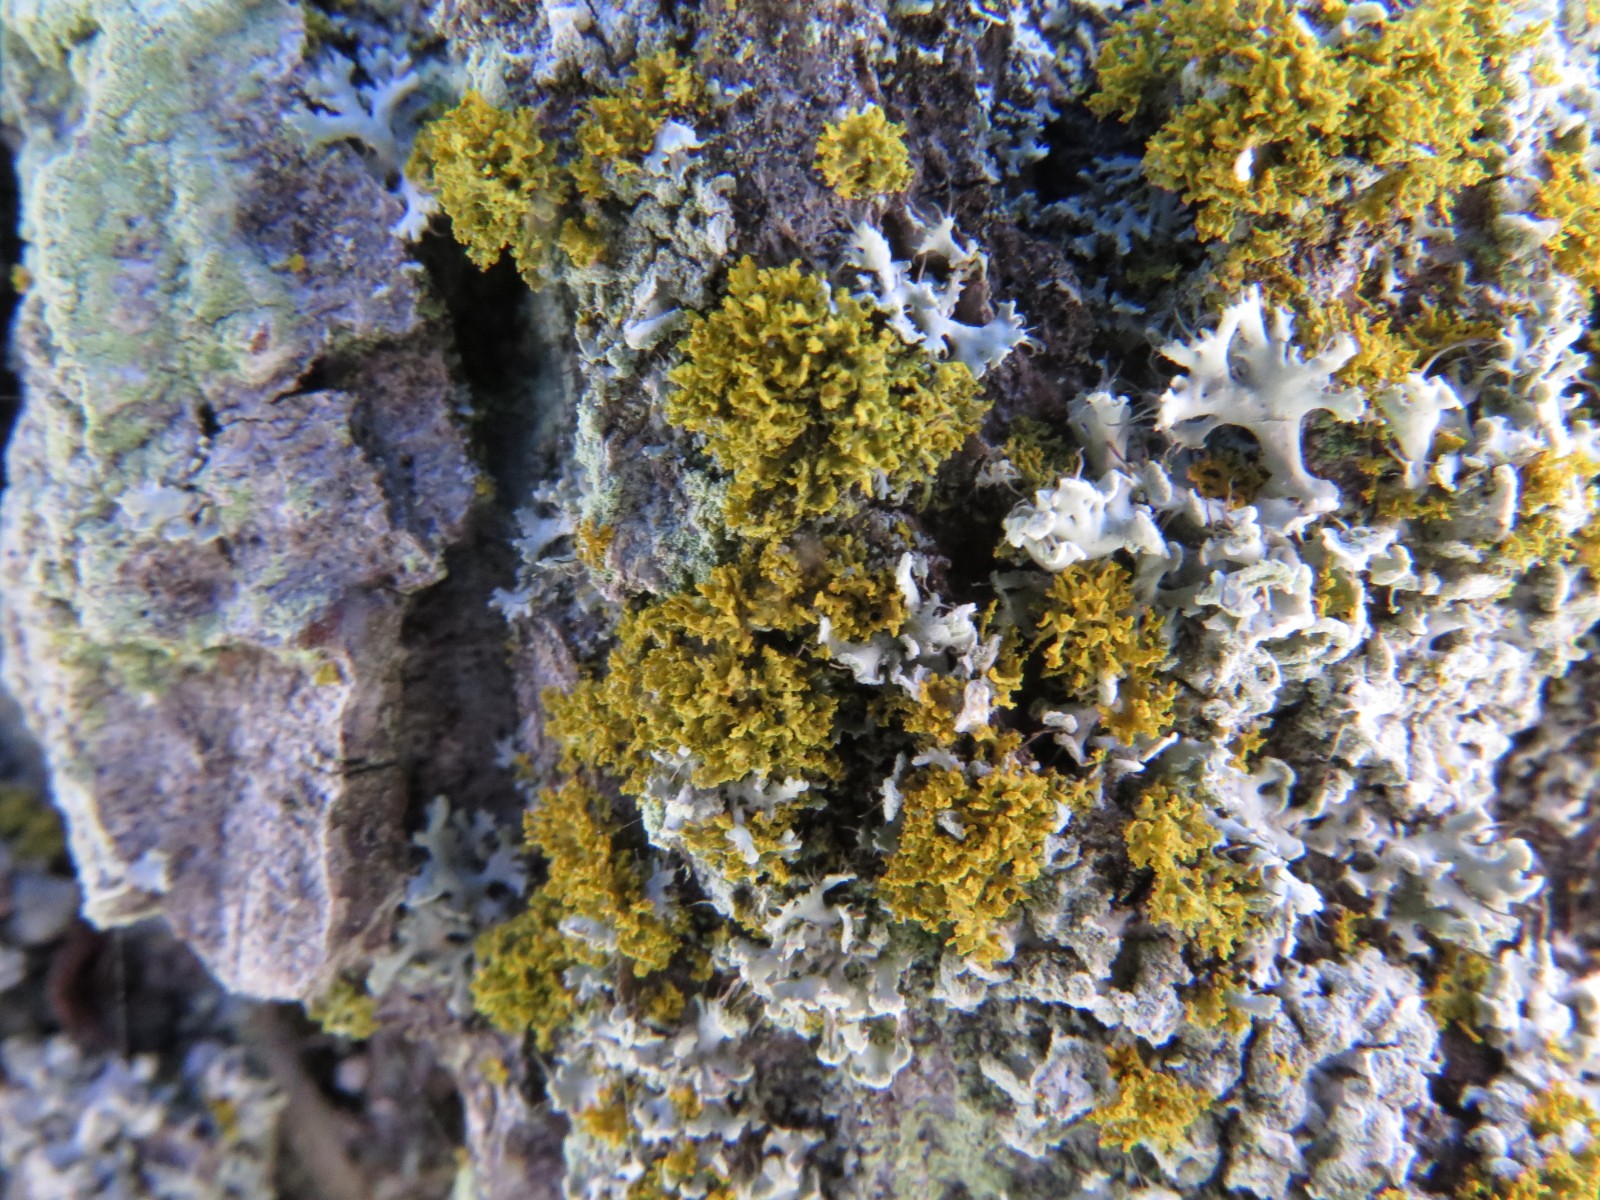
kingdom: Fungi
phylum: Ascomycota
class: Lecanoromycetes
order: Teloschistales
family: Teloschistaceae
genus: Polycauliona
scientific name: Polycauliona candelaria
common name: tue-orangelav
